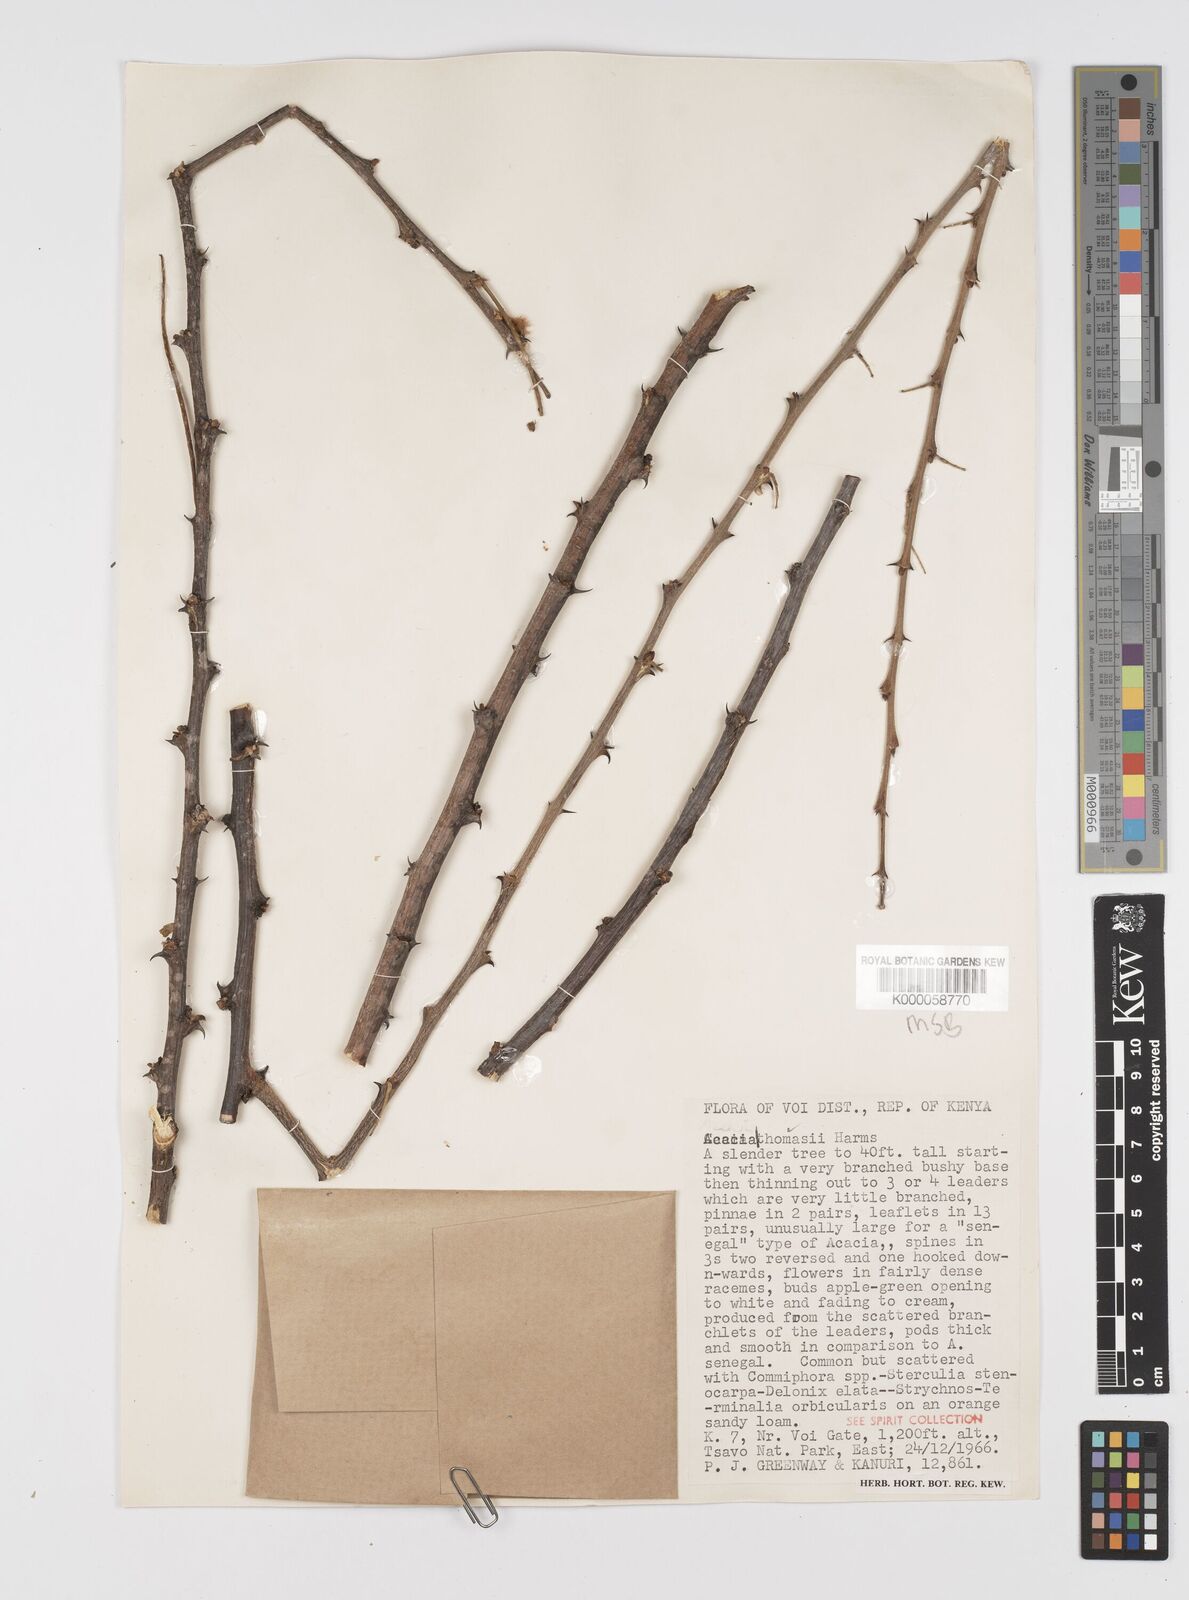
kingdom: Plantae
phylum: Tracheophyta
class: Magnoliopsida
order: Fabales
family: Fabaceae
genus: Senegalia
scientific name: Senegalia thomasii
